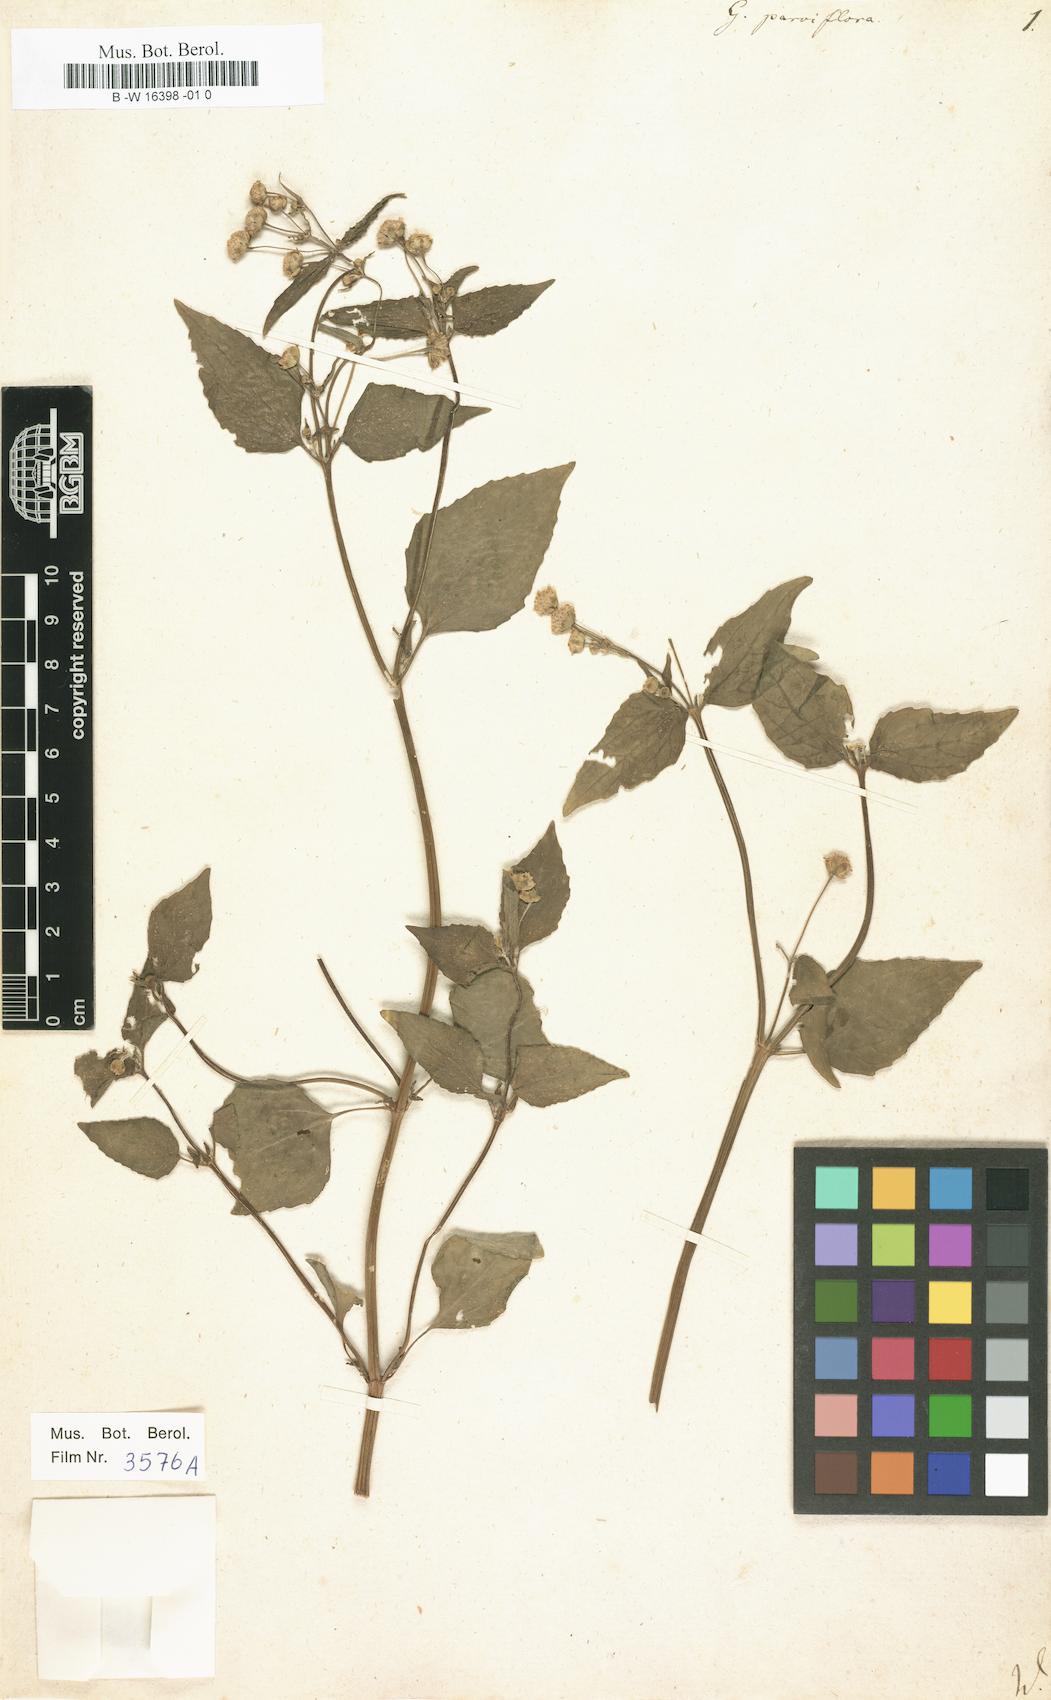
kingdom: Plantae
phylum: Tracheophyta
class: Magnoliopsida
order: Asterales
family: Asteraceae
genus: Galinsoga
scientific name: Galinsoga parviflora
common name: Gallant soldier
